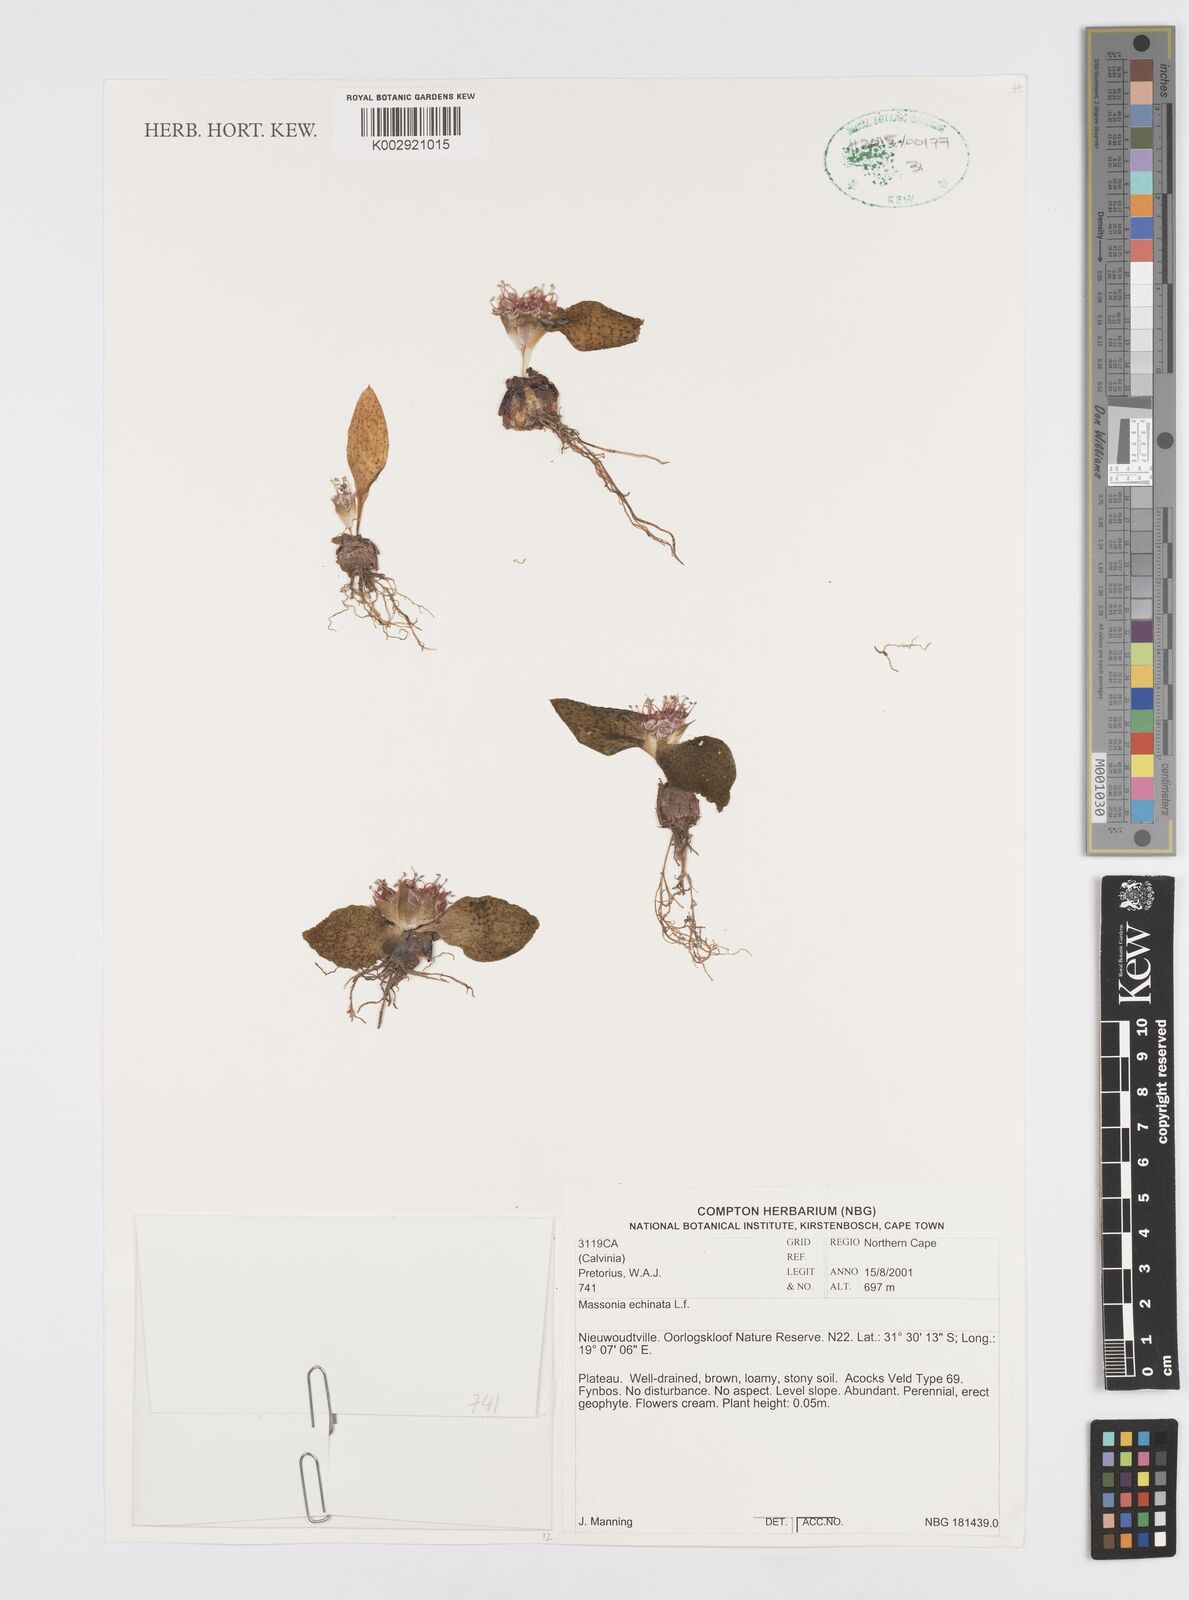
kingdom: Plantae
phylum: Tracheophyta
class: Liliopsida
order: Asparagales
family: Asparagaceae
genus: Massonia
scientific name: Massonia echinata
